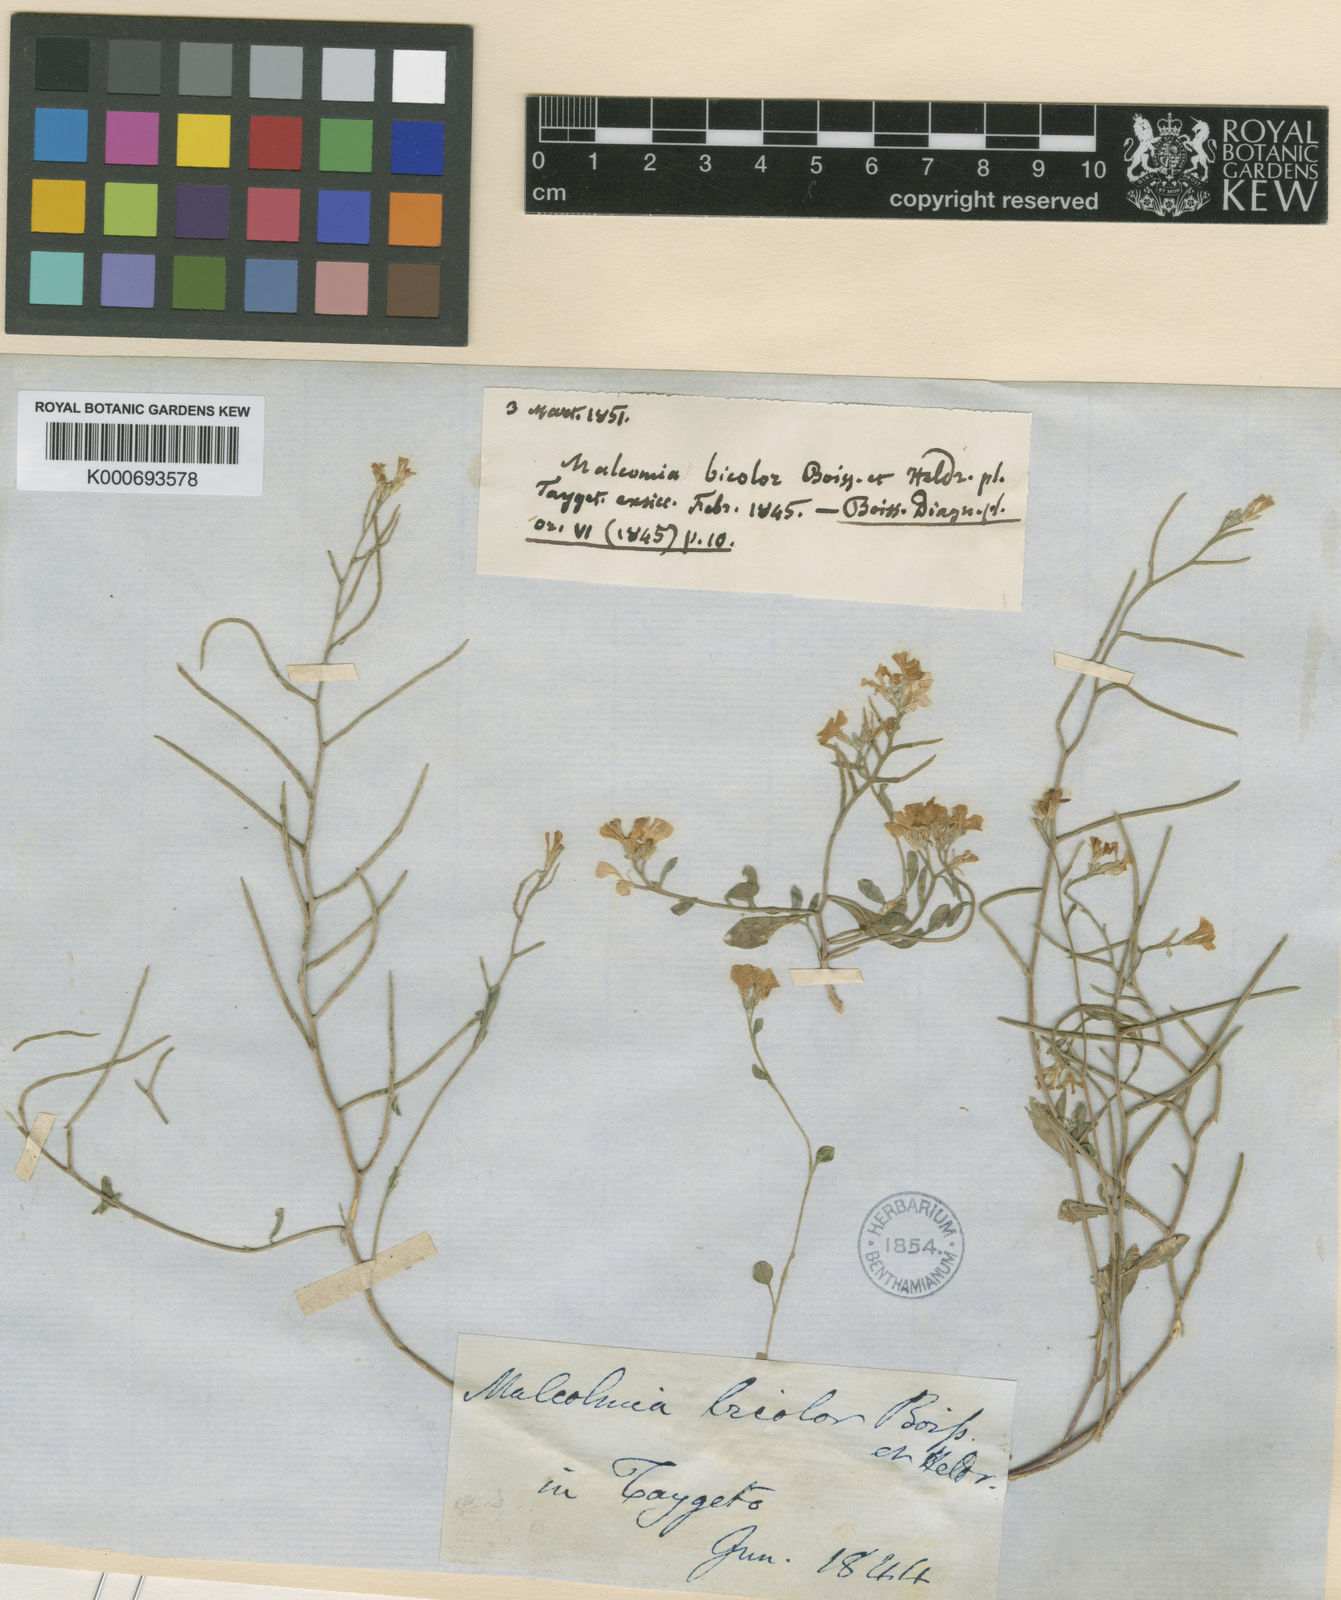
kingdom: Plantae
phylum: Tracheophyta
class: Magnoliopsida
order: Brassicales
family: Brassicaceae
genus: Malcolmia
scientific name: Malcolmia graeca
